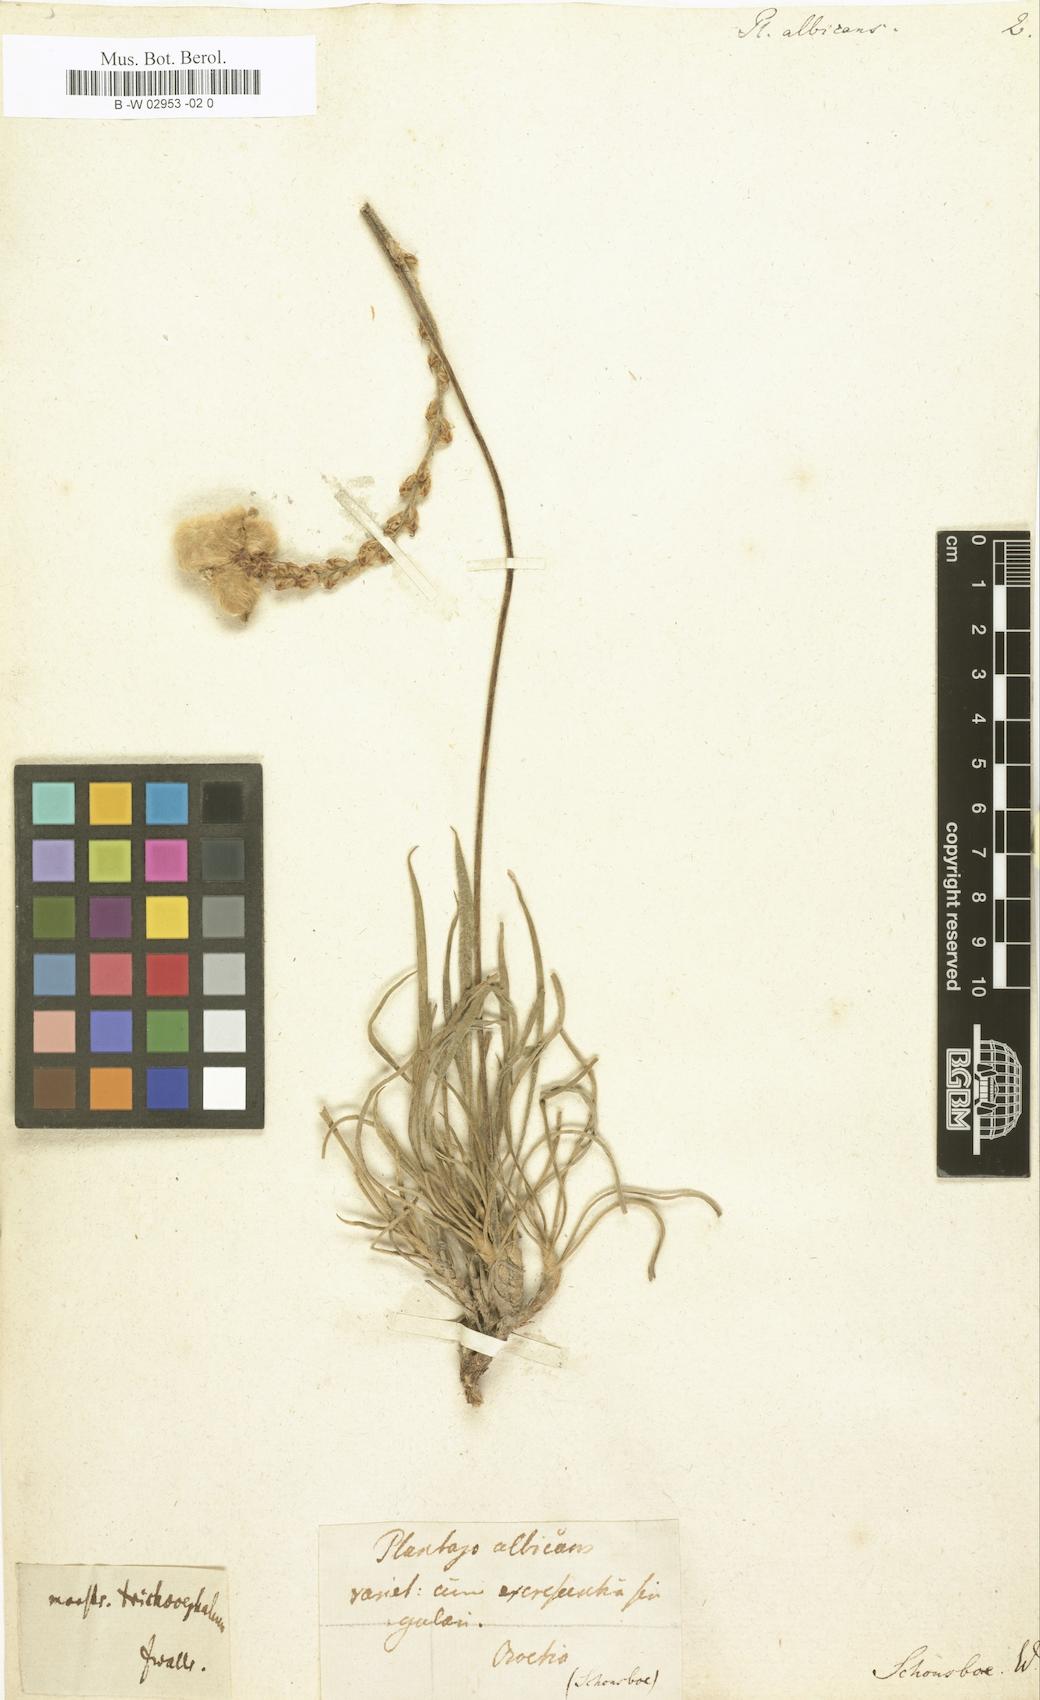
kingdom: Plantae
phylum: Tracheophyta
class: Magnoliopsida
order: Lamiales
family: Plantaginaceae
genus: Plantago
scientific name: Plantago albicans
